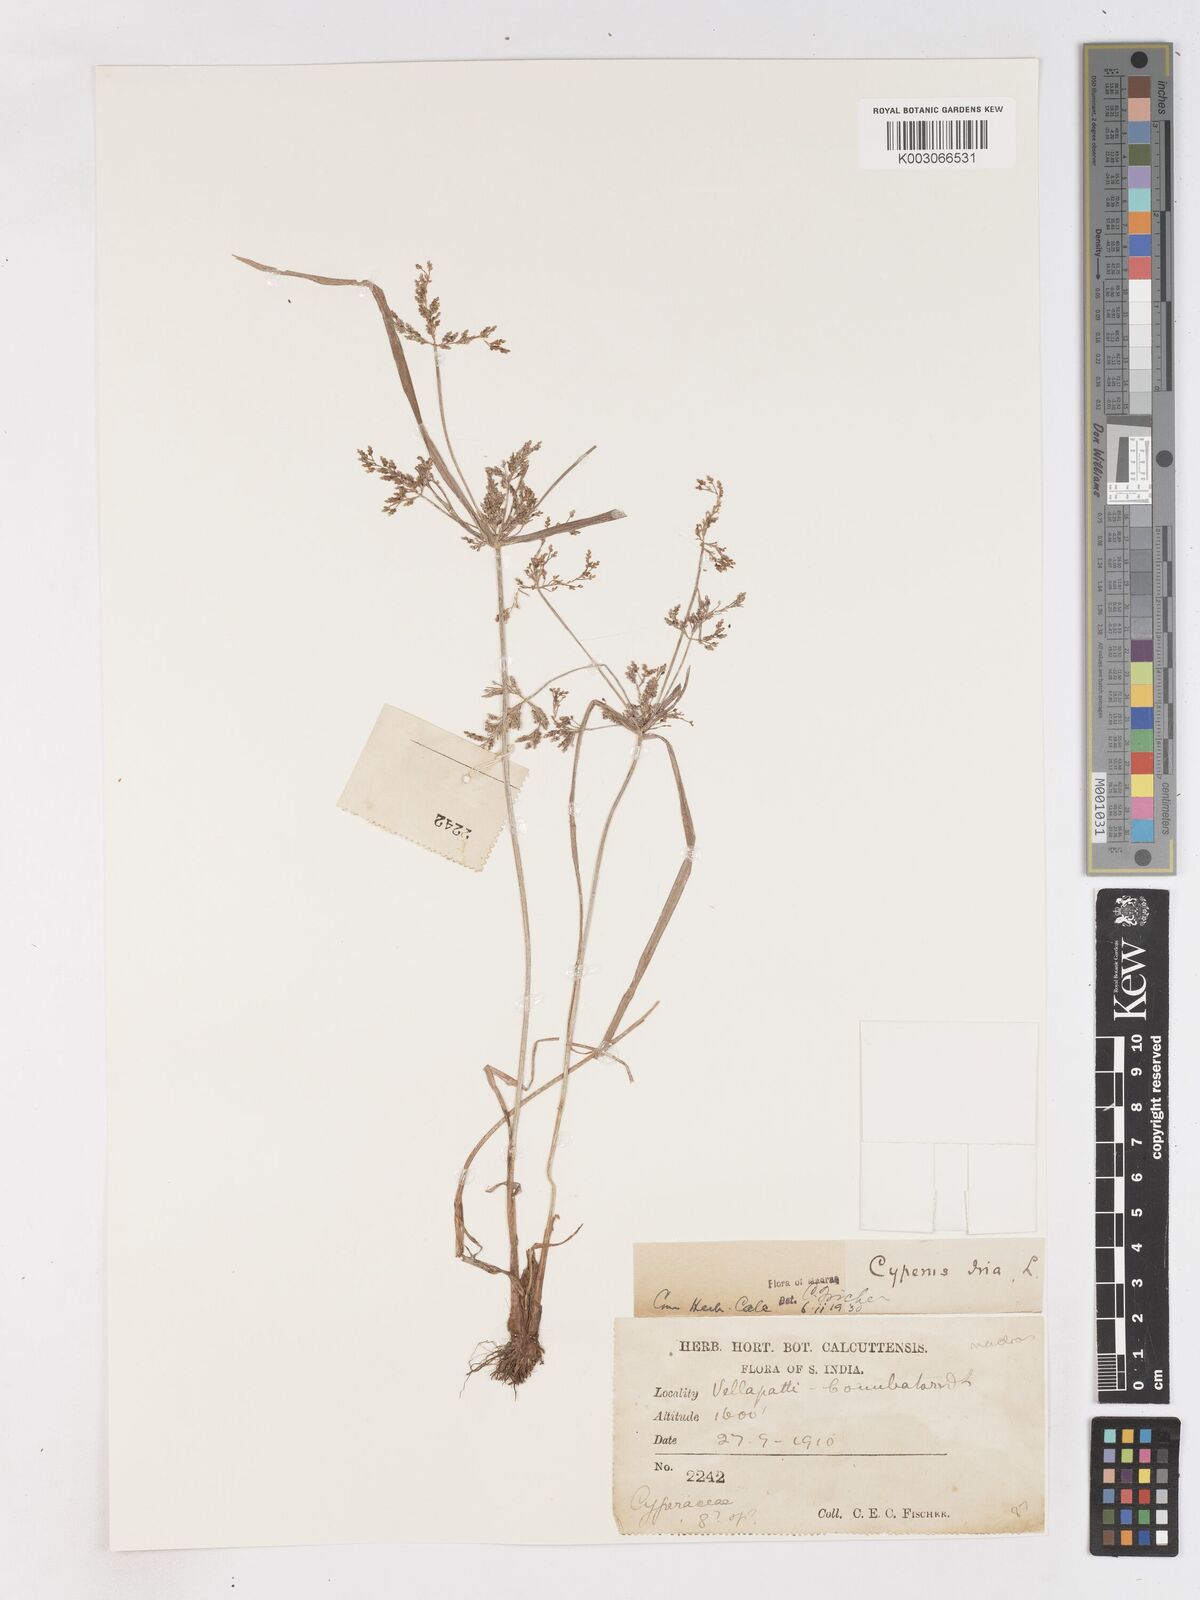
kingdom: Plantae
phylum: Tracheophyta
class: Liliopsida
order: Poales
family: Cyperaceae
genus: Cyperus
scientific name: Cyperus iria
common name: Ricefield flatsedge
